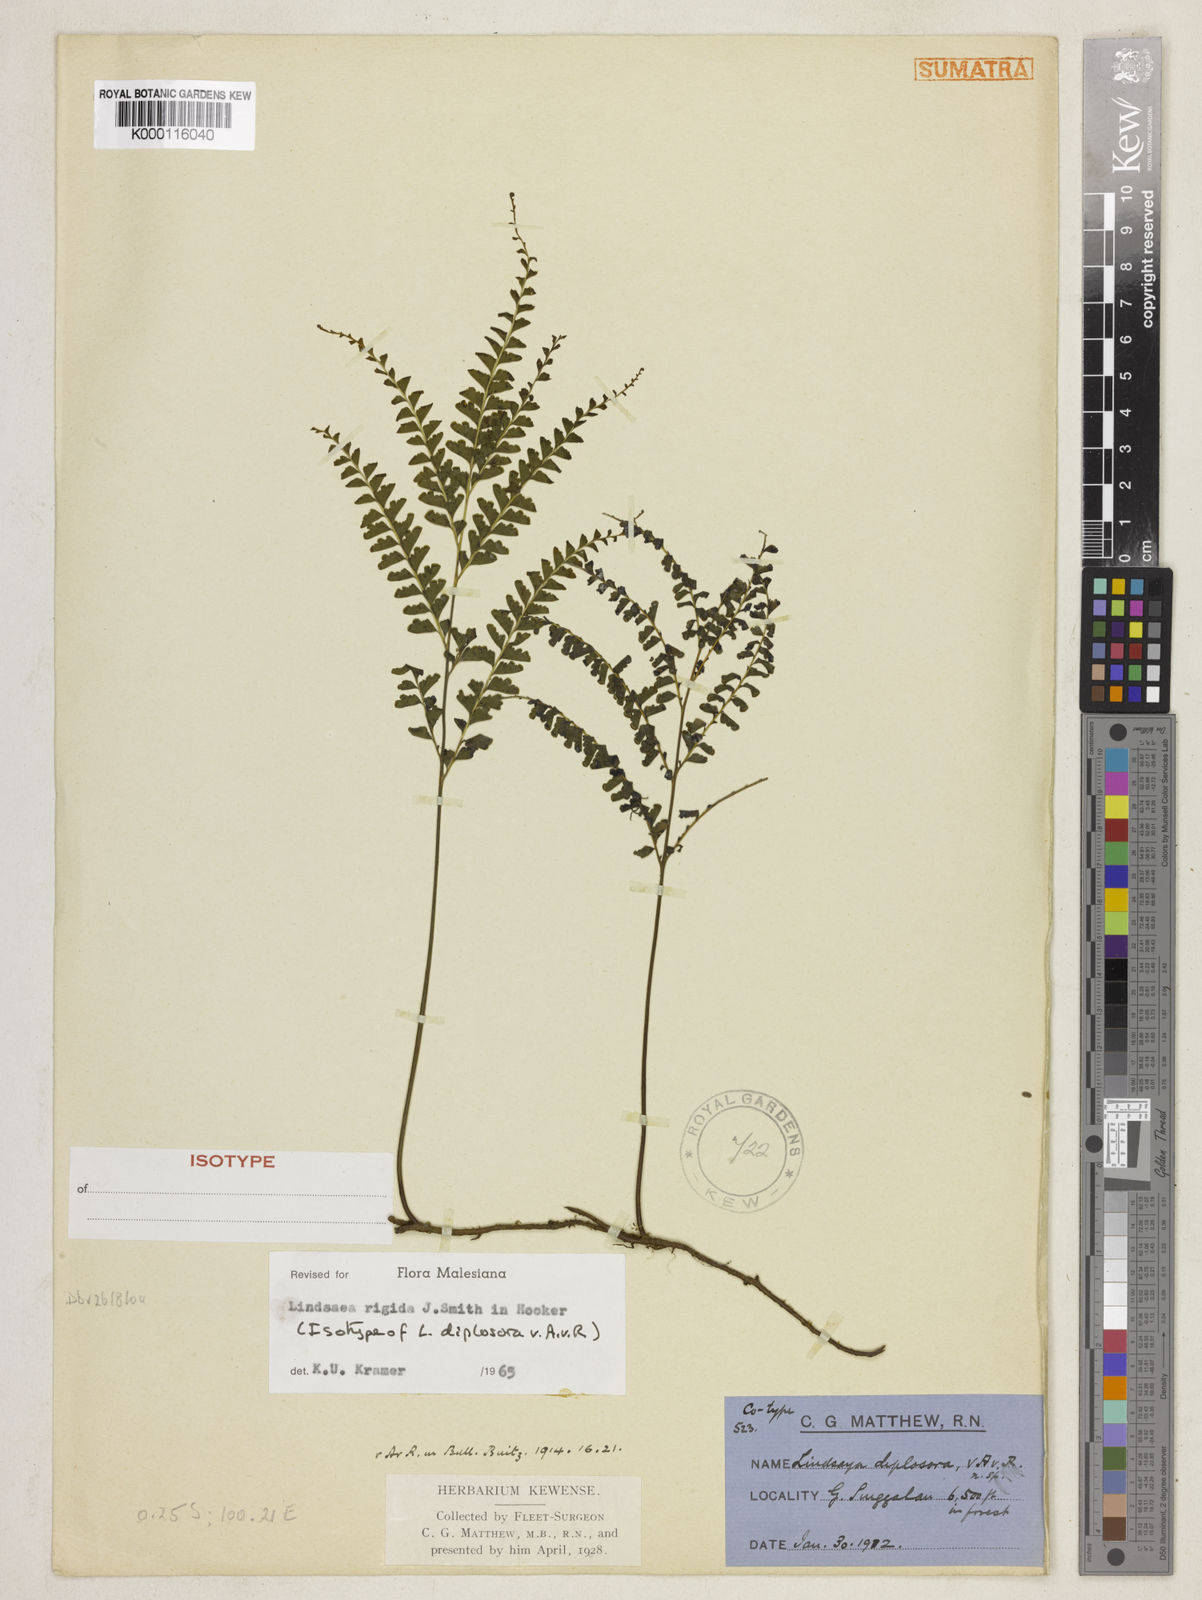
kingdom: Plantae
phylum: Tracheophyta
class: Polypodiopsida
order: Polypodiales
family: Lindsaeaceae
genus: Lindsaea
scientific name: Lindsaea rigida
